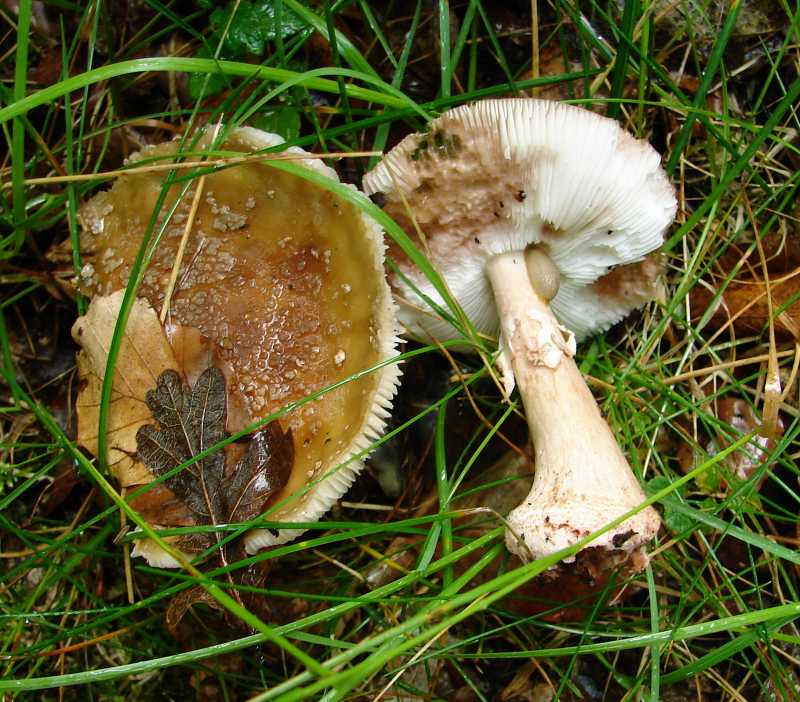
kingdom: Fungi
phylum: Basidiomycota
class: Agaricomycetes
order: Agaricales
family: Amanitaceae
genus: Amanita
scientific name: Amanita rubescens
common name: rødmende fluesvamp
